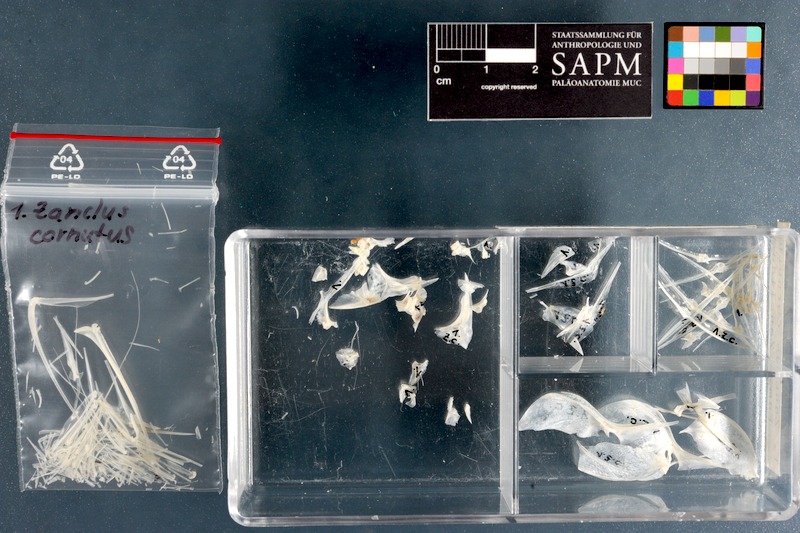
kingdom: Animalia
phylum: Chordata
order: Perciformes
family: Zanclidae
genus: Zanclus
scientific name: Zanclus cornutus
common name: Moorish idol
